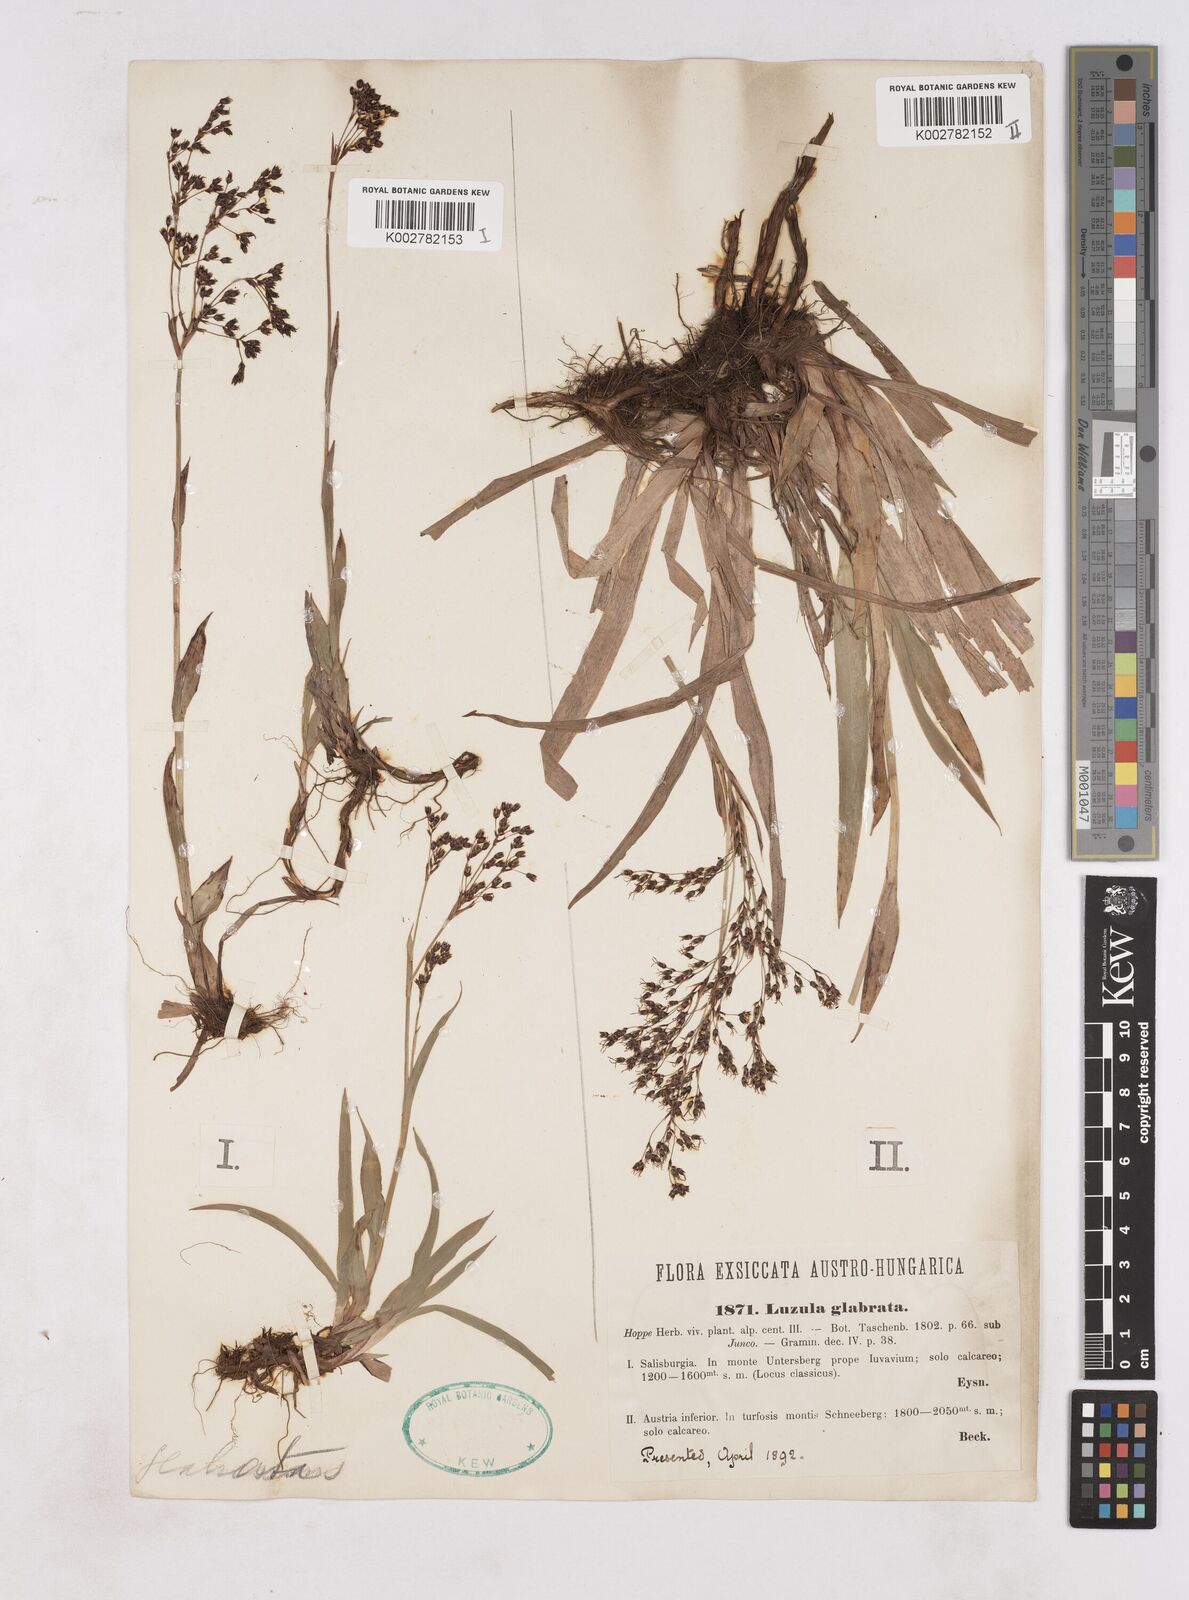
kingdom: Plantae
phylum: Tracheophyta
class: Liliopsida
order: Poales
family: Juncaceae
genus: Luzula
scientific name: Luzula glabrata
